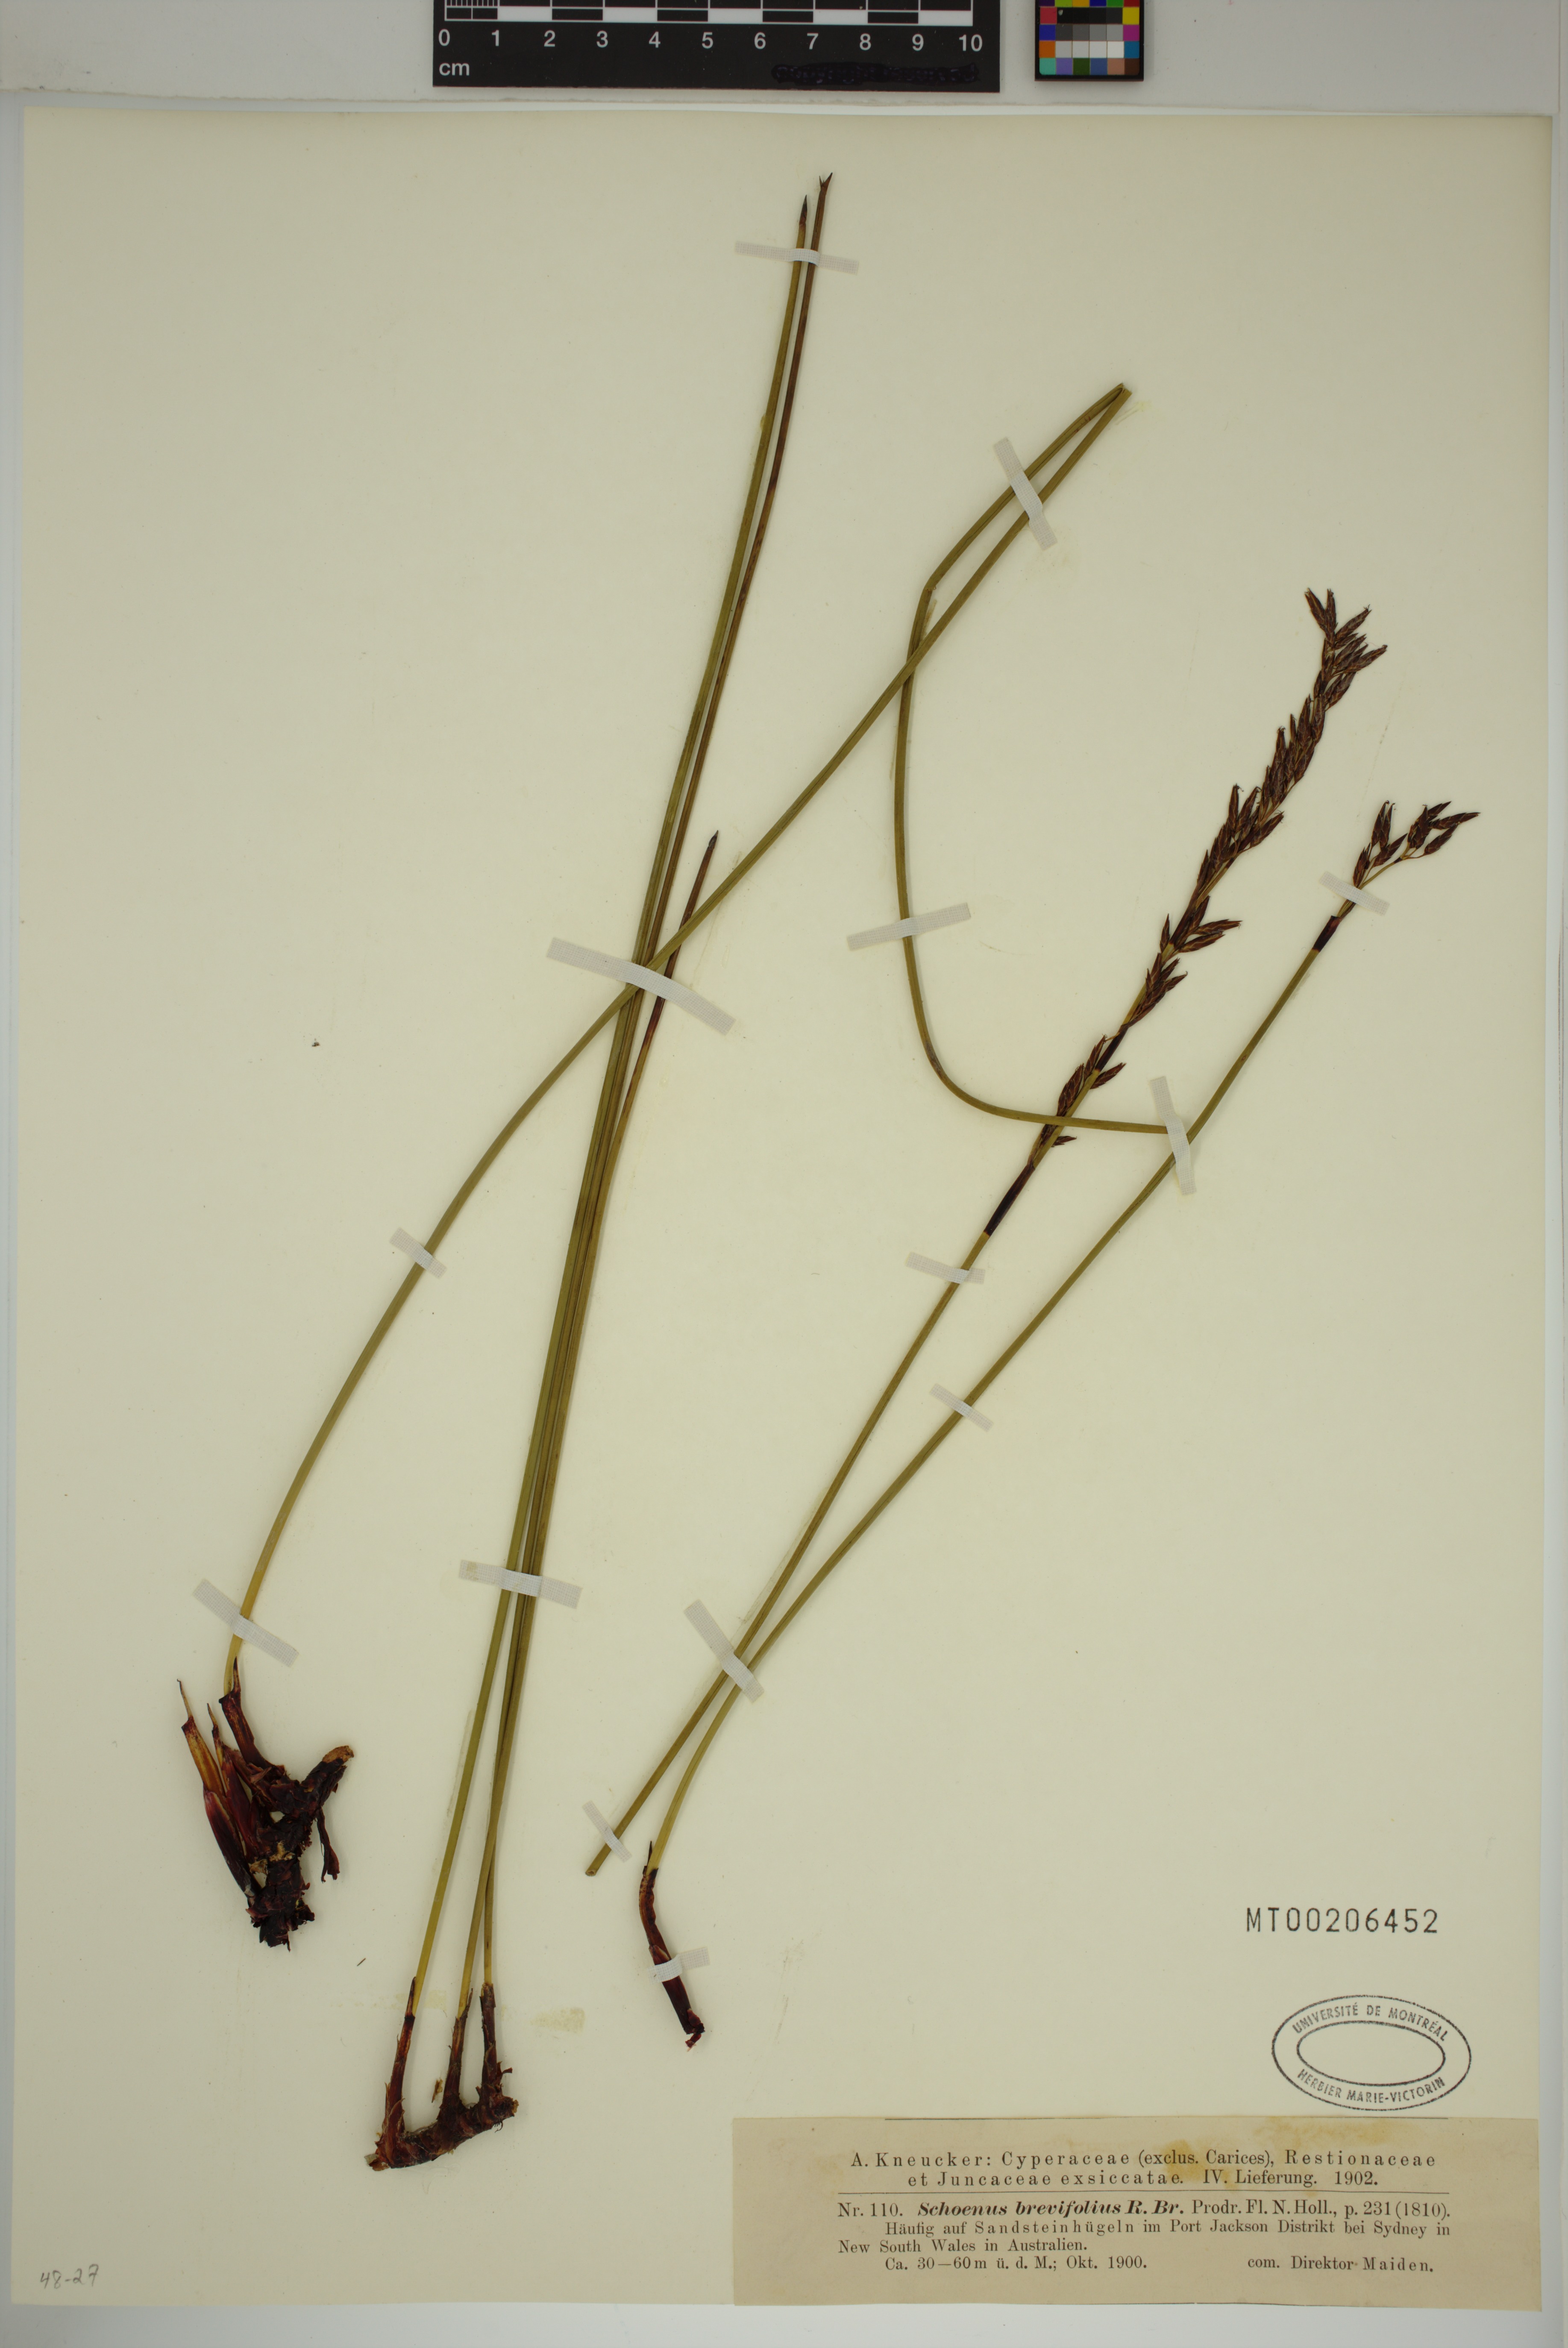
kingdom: Plantae
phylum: Tracheophyta
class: Liliopsida
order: Poales
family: Cyperaceae
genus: Schoenus
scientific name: Schoenus brevifolius
